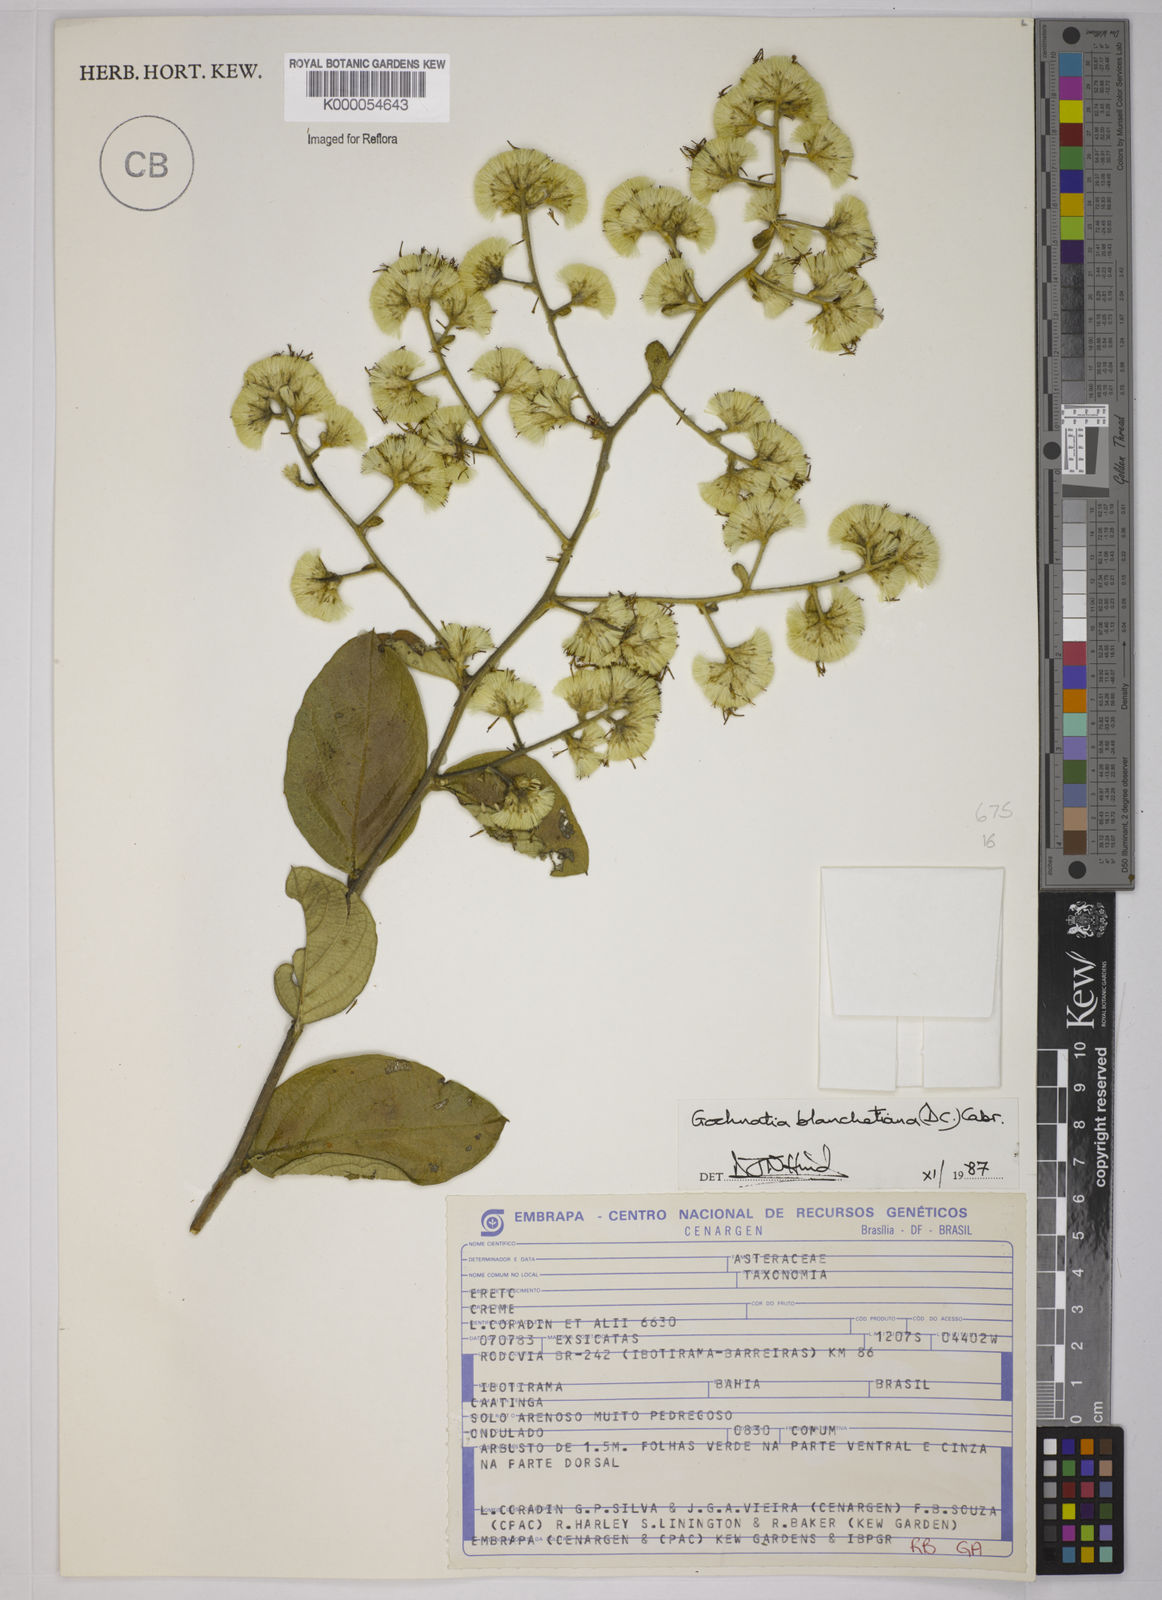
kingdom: Plantae
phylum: Tracheophyta
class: Magnoliopsida
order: Asterales
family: Asteraceae
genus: Moquiniastrum
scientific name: Moquiniastrum blanchetianum
